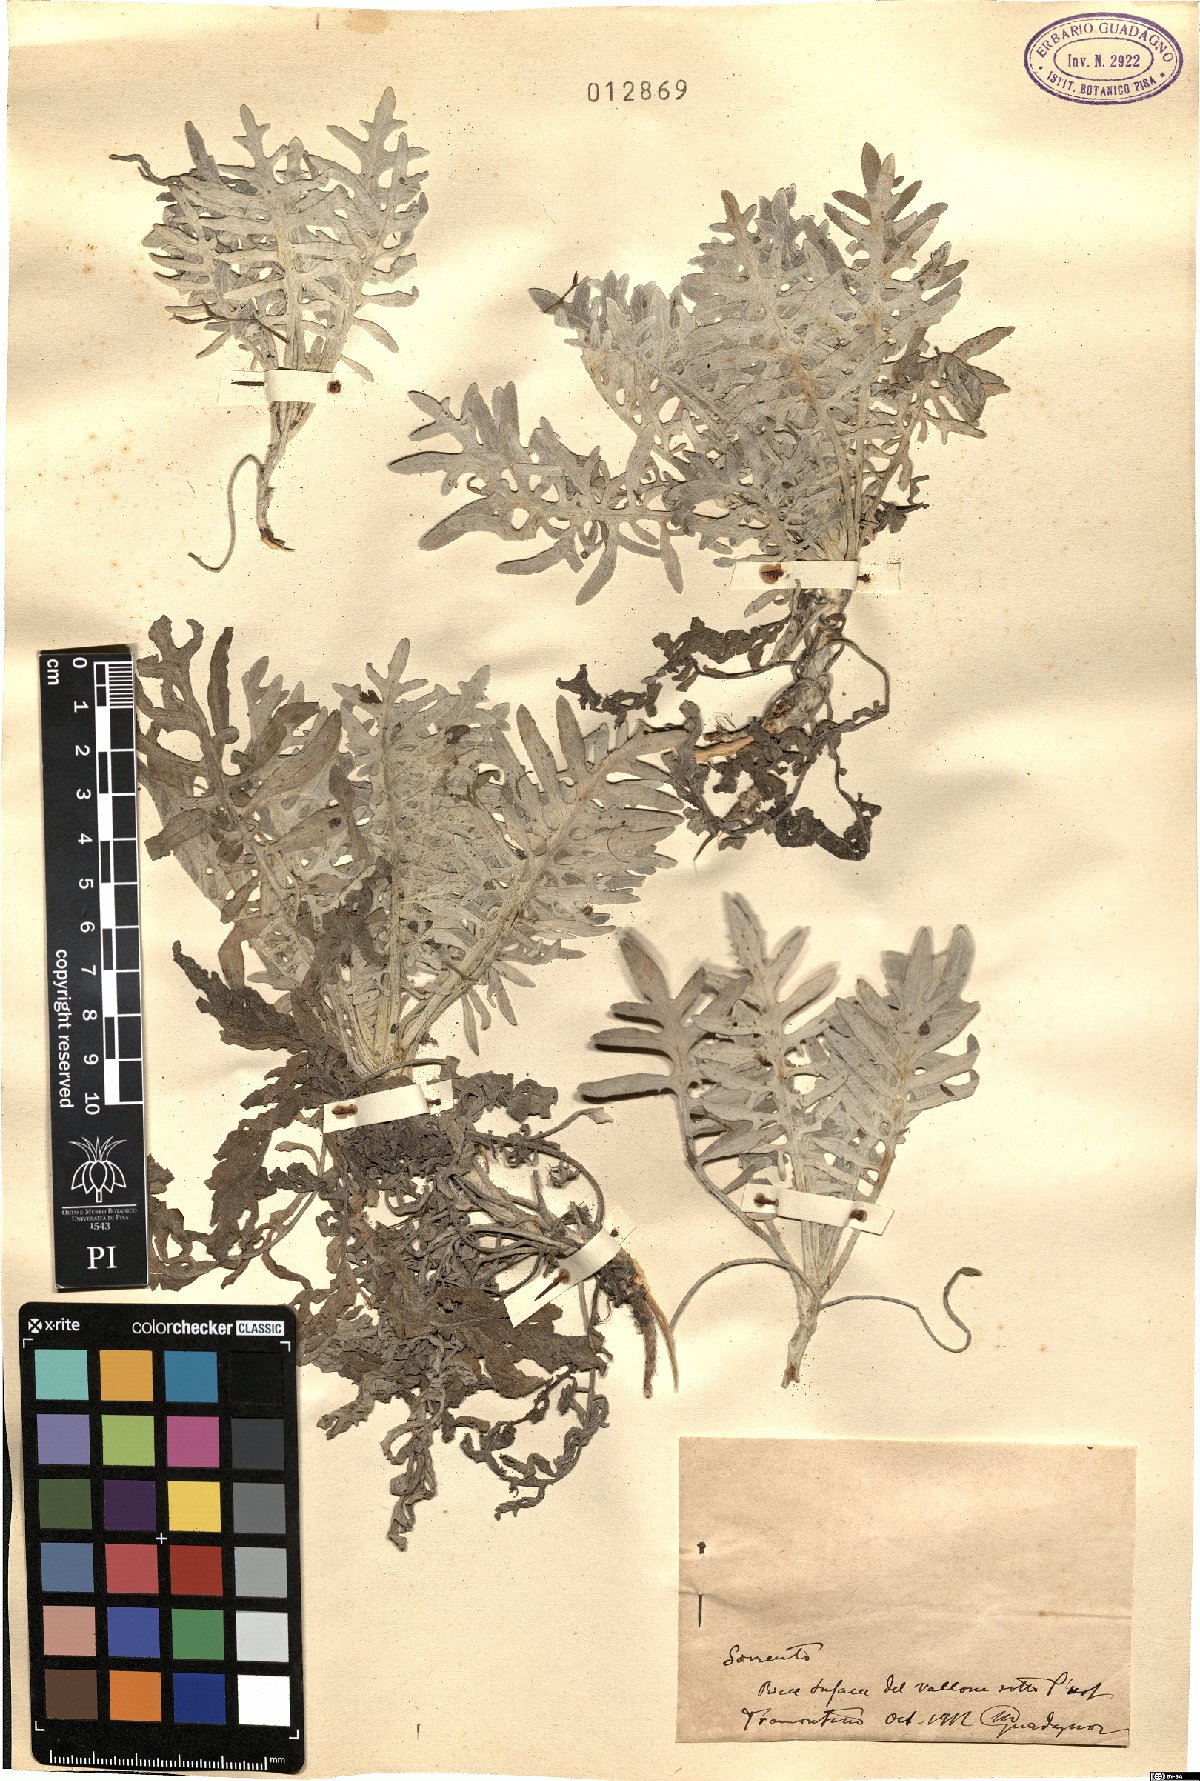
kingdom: Plantae
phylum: Tracheophyta
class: Magnoliopsida
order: Asterales
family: Asteraceae
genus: Centaurea
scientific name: Centaurea
